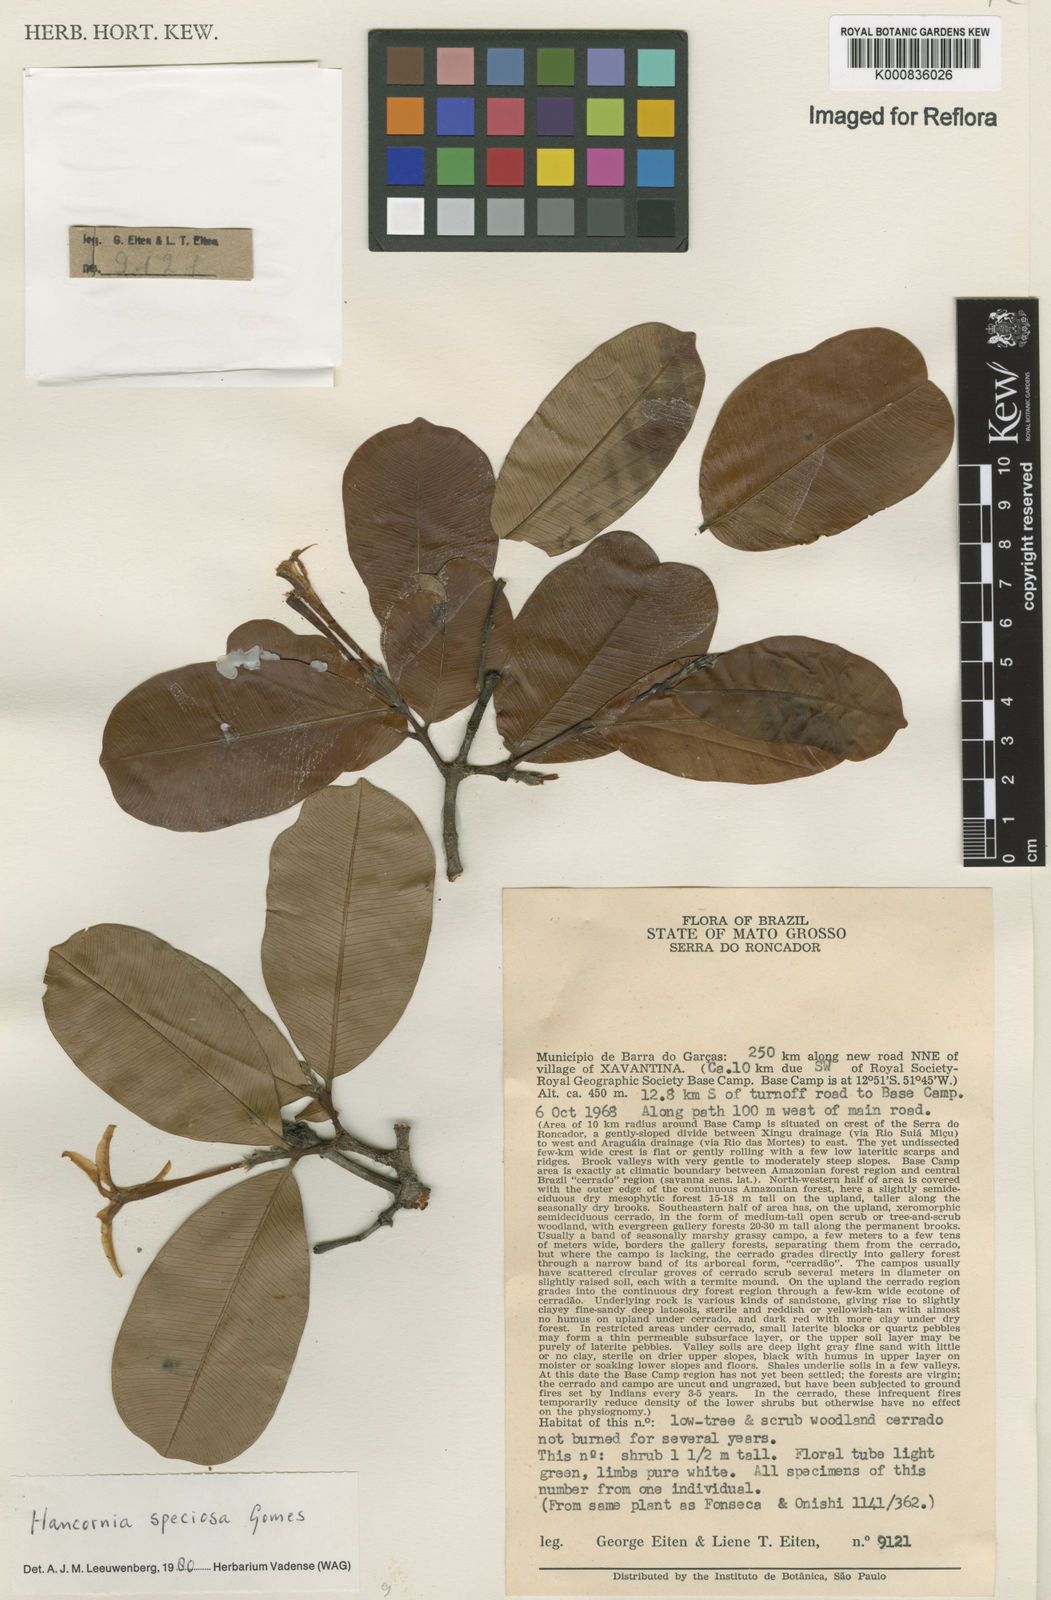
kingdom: Plantae
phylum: Tracheophyta
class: Magnoliopsida
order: Gentianales
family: Apocynaceae
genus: Hancornia
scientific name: Hancornia speciosa
